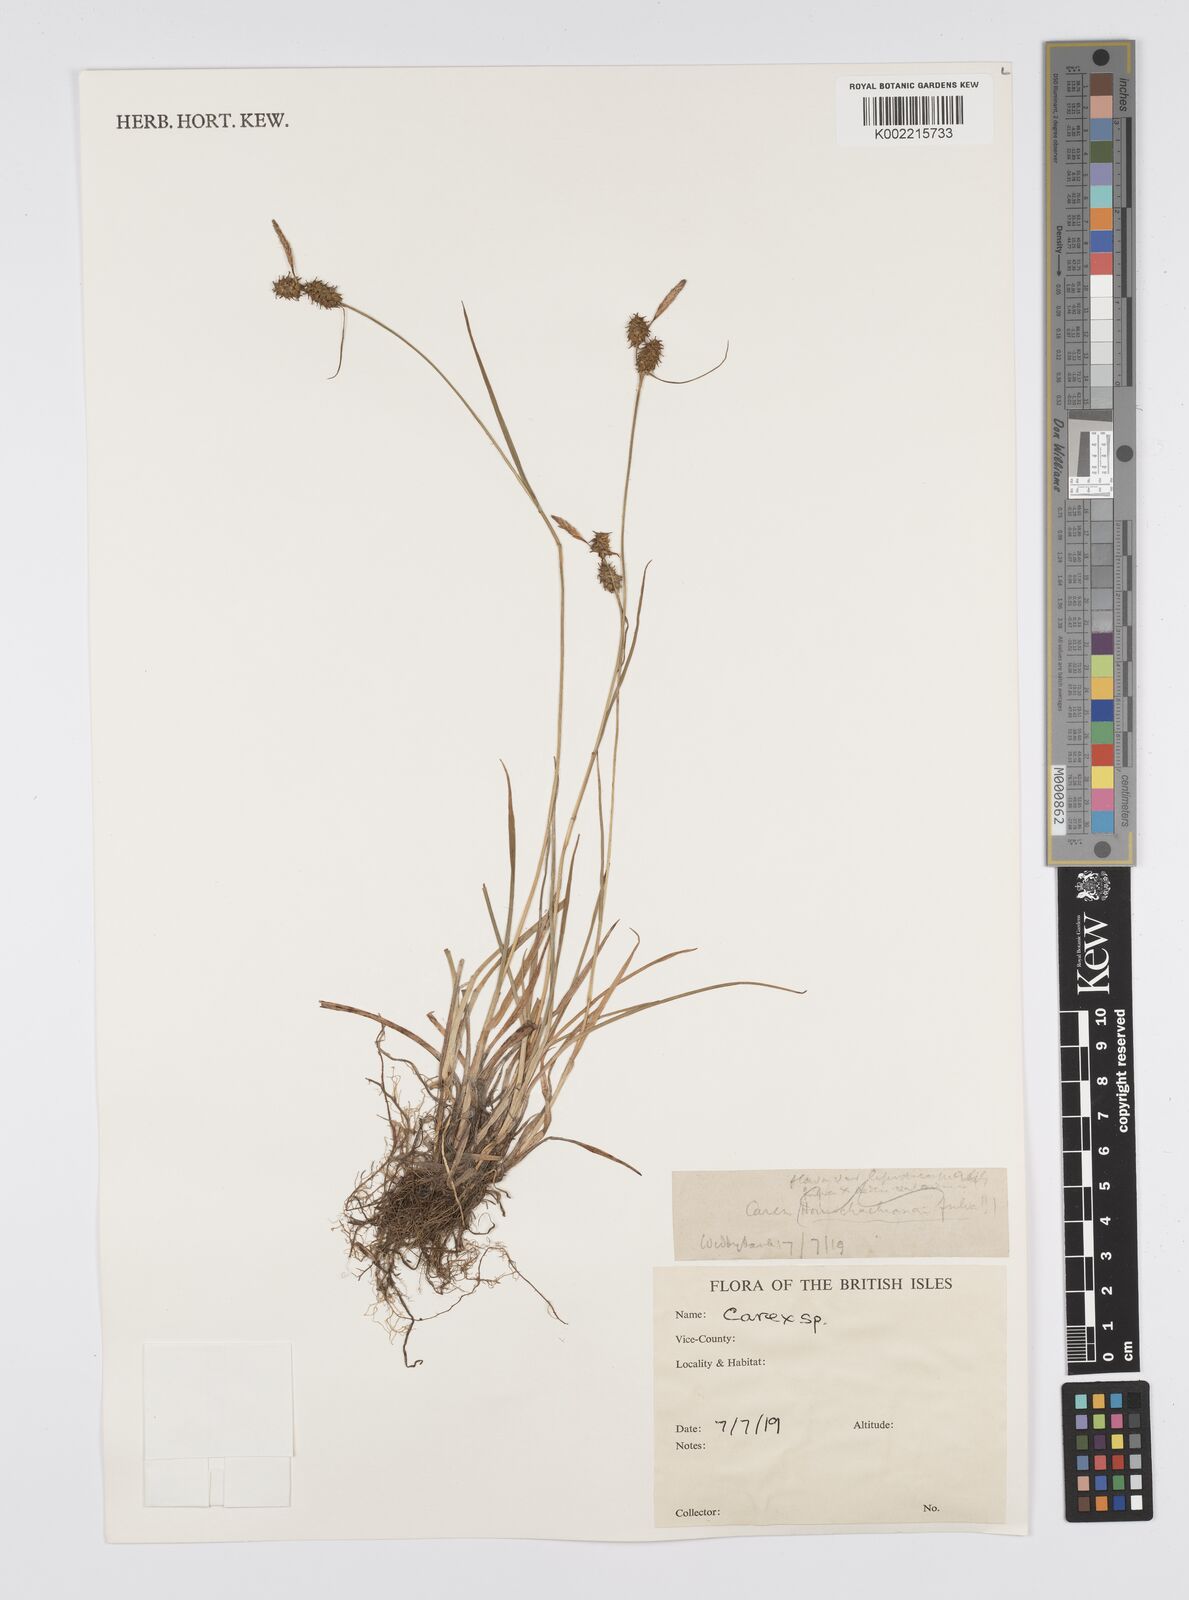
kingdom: Plantae
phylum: Tracheophyta
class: Liliopsida
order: Poales
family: Cyperaceae
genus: Carex
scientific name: Carex
